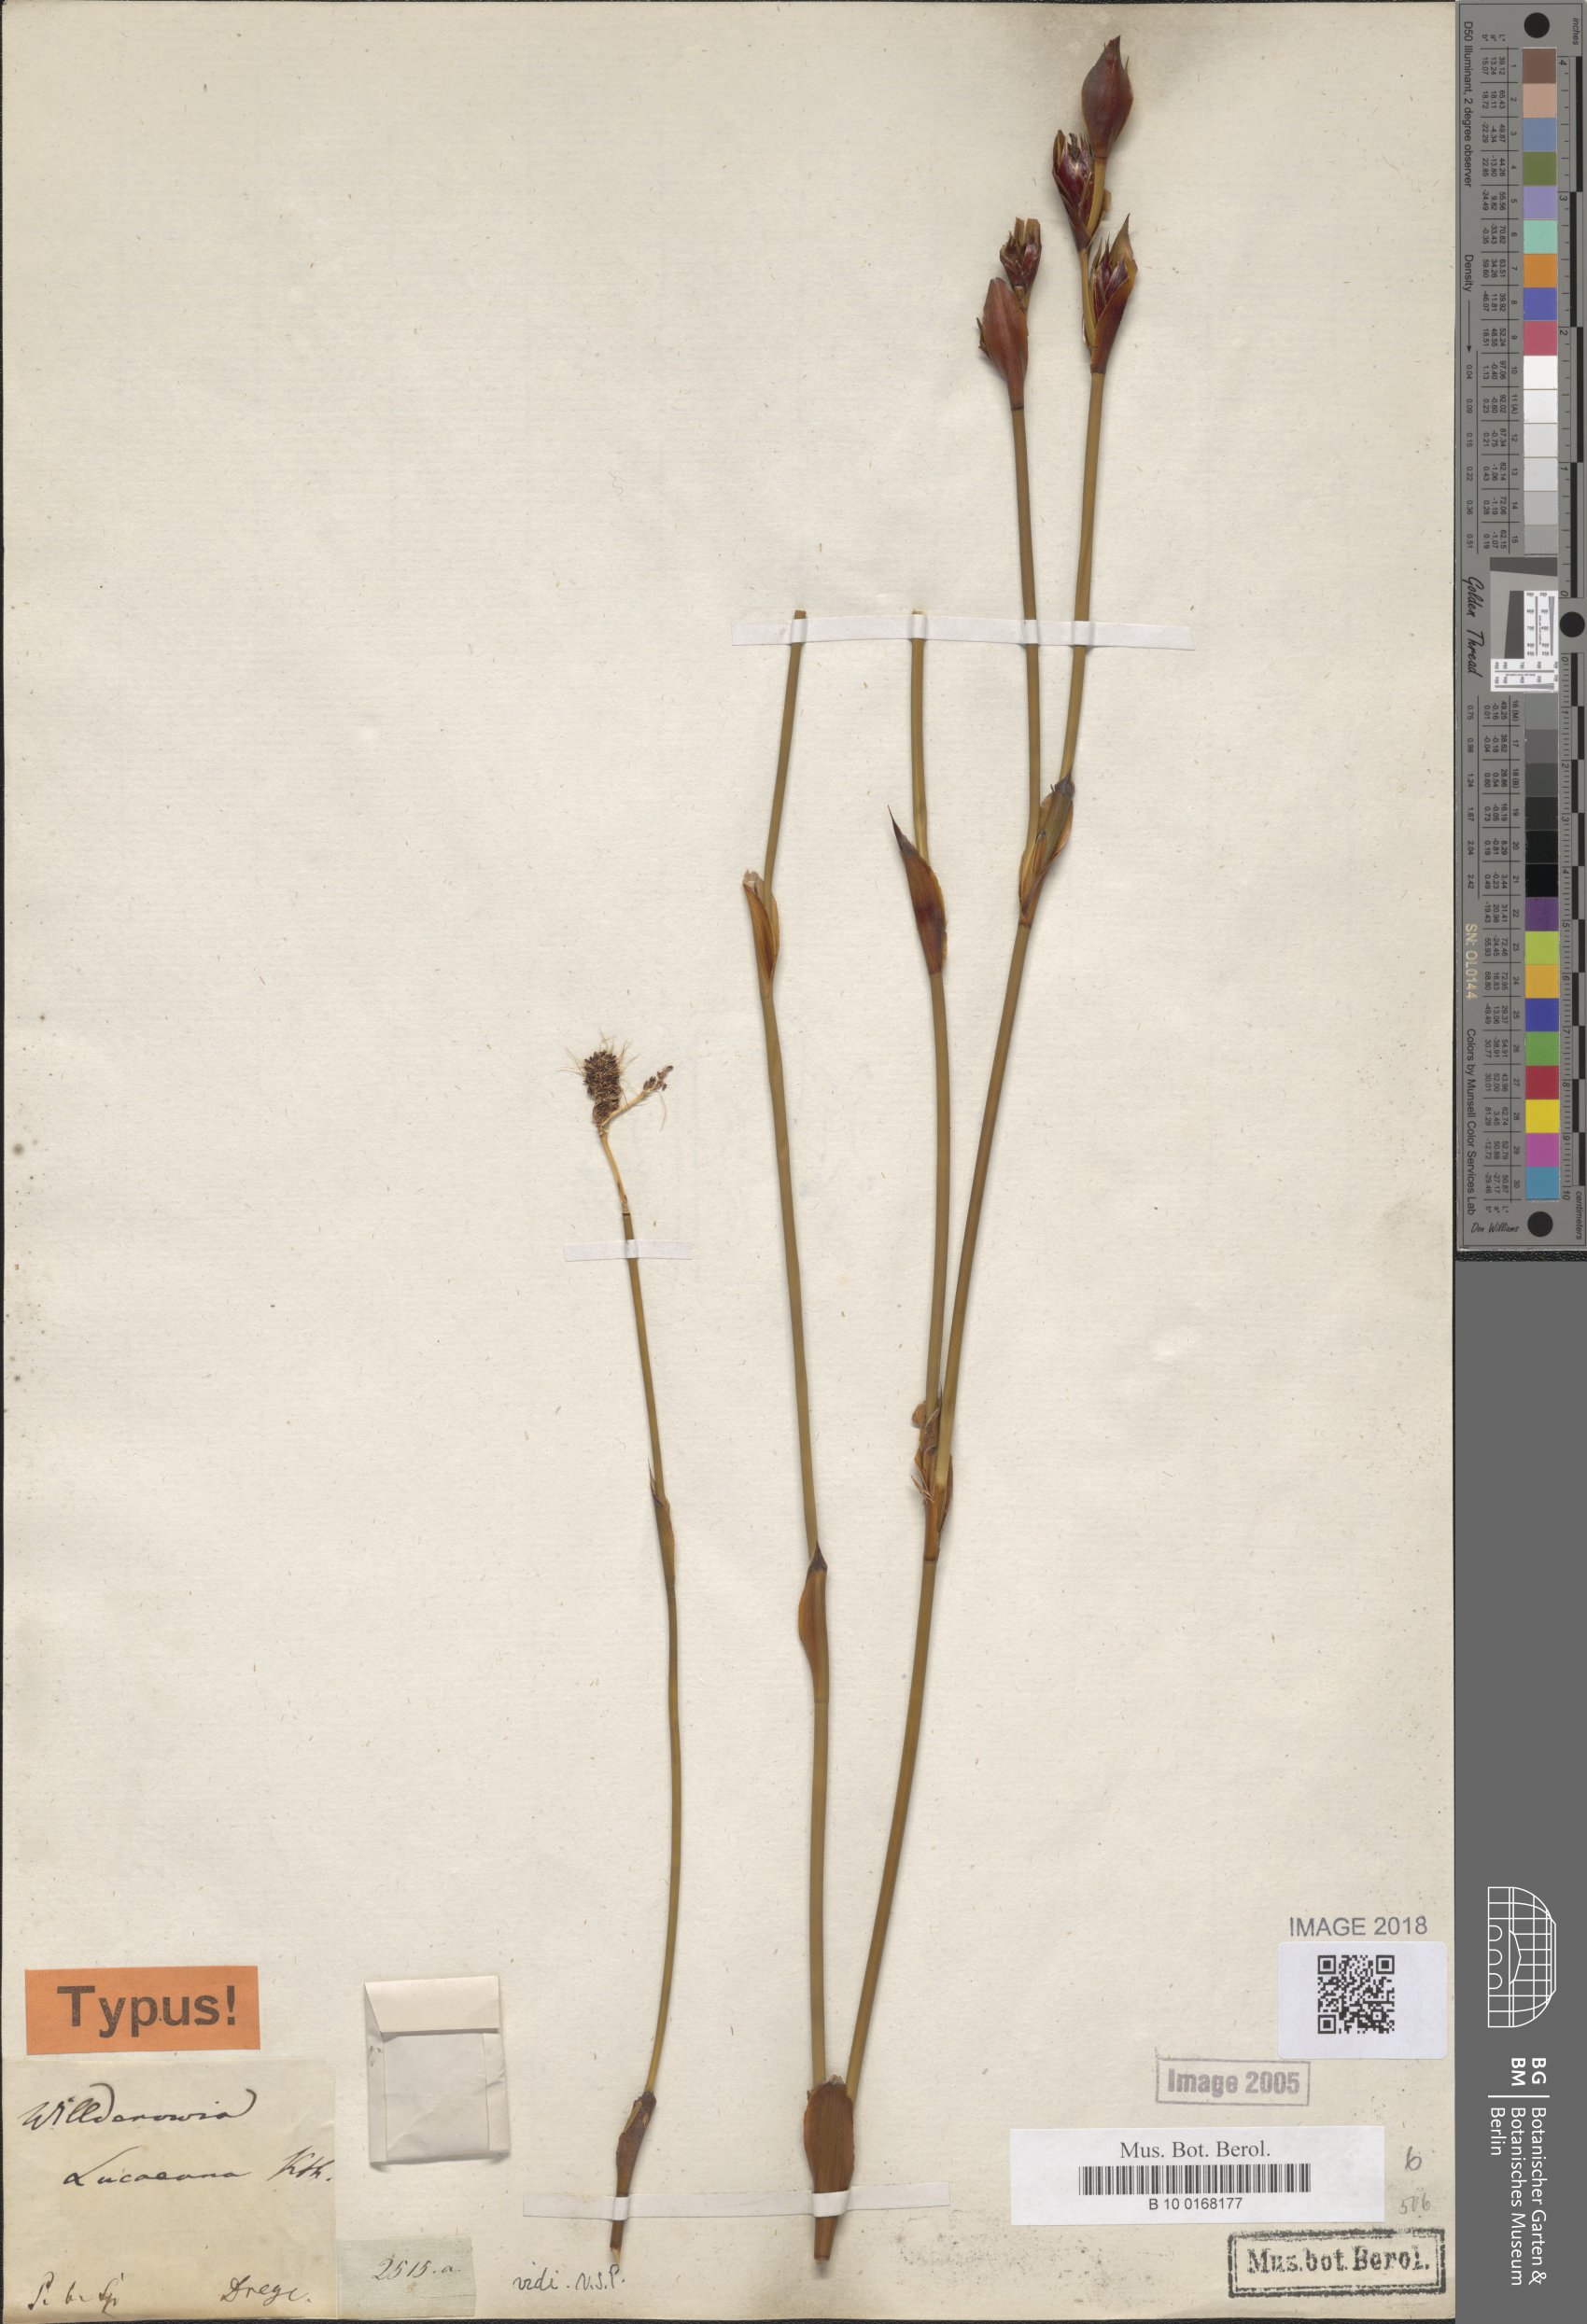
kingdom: Plantae
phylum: Tracheophyta
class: Liliopsida
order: Poales
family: Restionaceae
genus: Willdenowia
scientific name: Willdenowia glomerata
